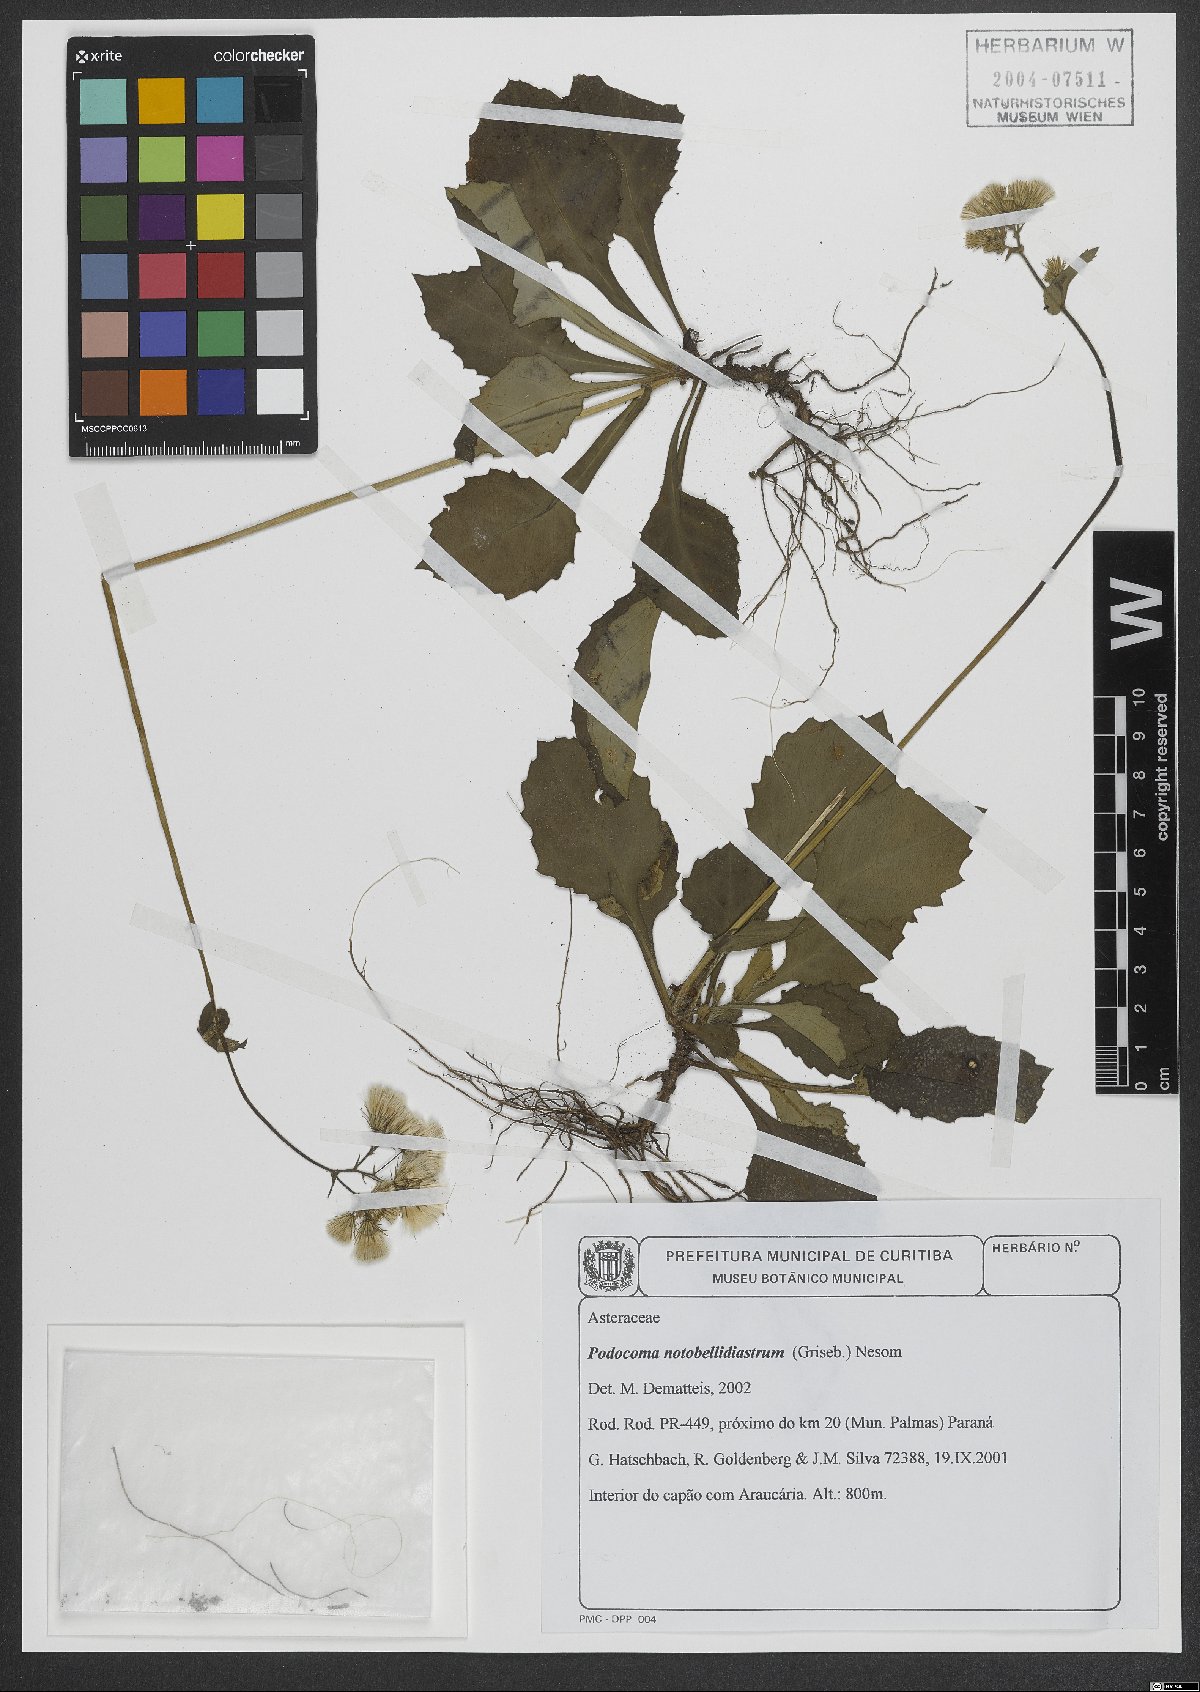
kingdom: Plantae
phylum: Tracheophyta
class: Magnoliopsida
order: Asterales
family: Asteraceae
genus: Exostigma
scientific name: Exostigma notobellidiastrum
